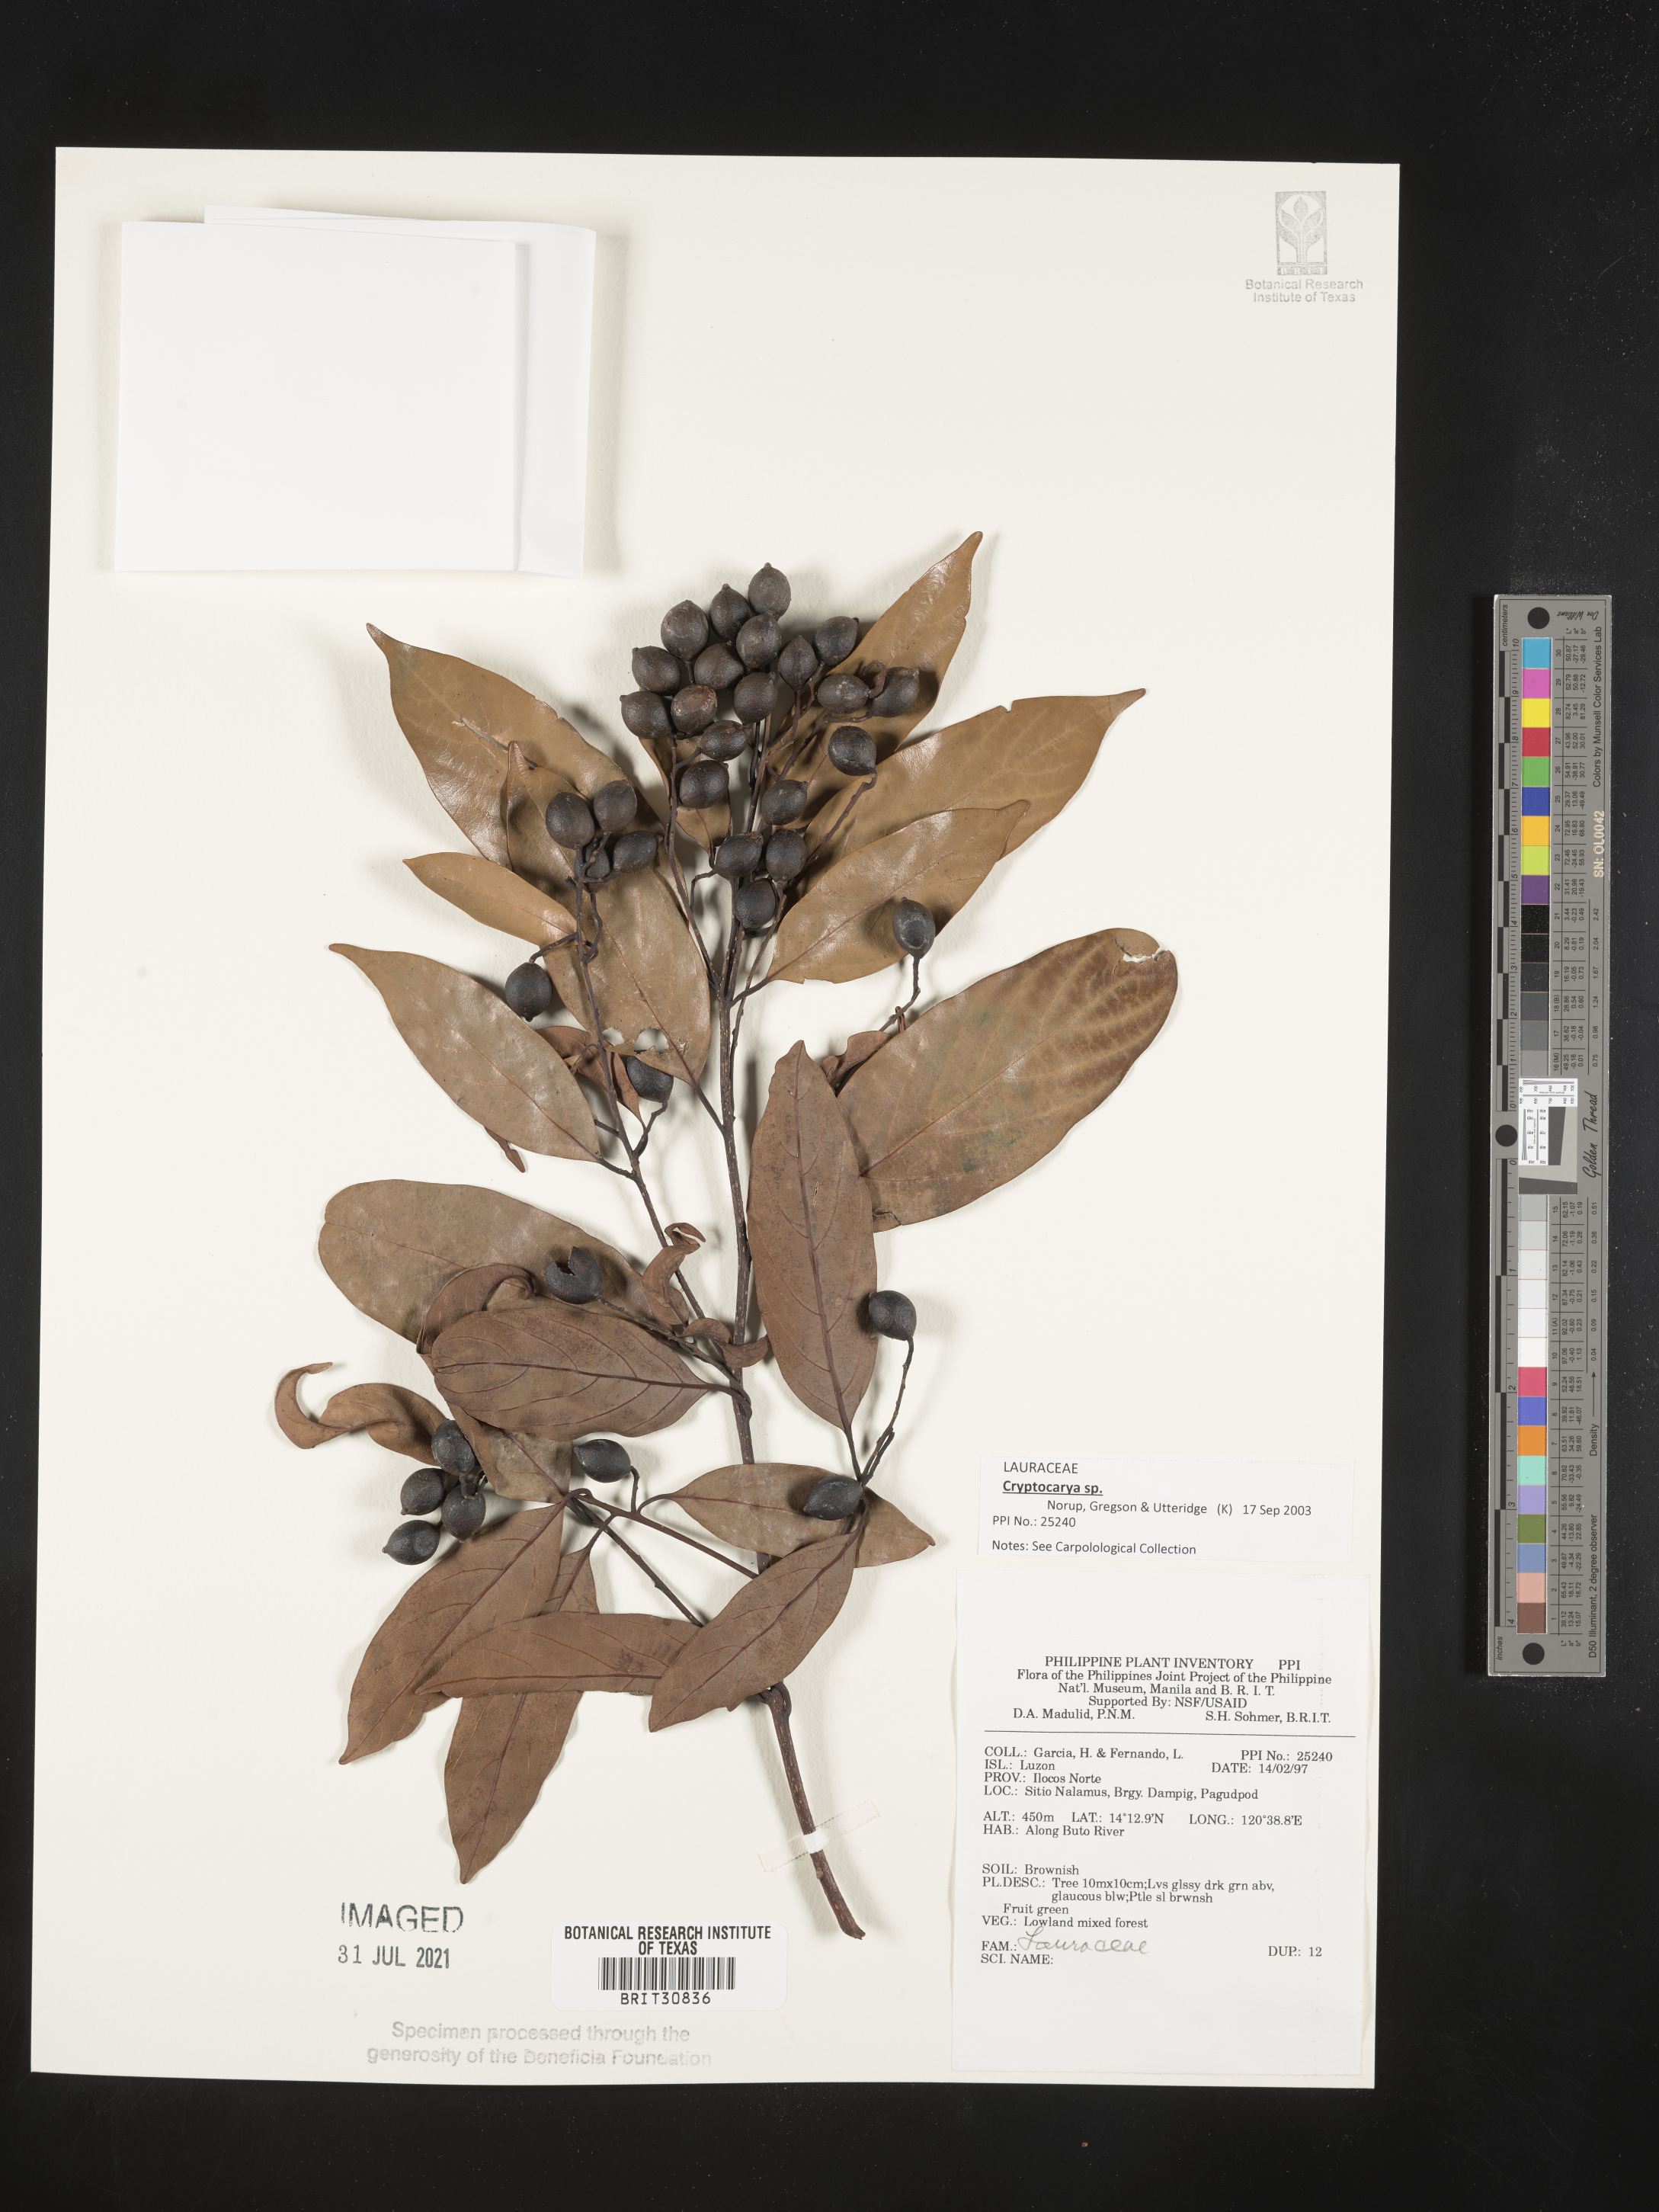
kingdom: Plantae
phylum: Tracheophyta
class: Magnoliopsida
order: Laurales
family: Lauraceae
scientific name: Lauraceae
